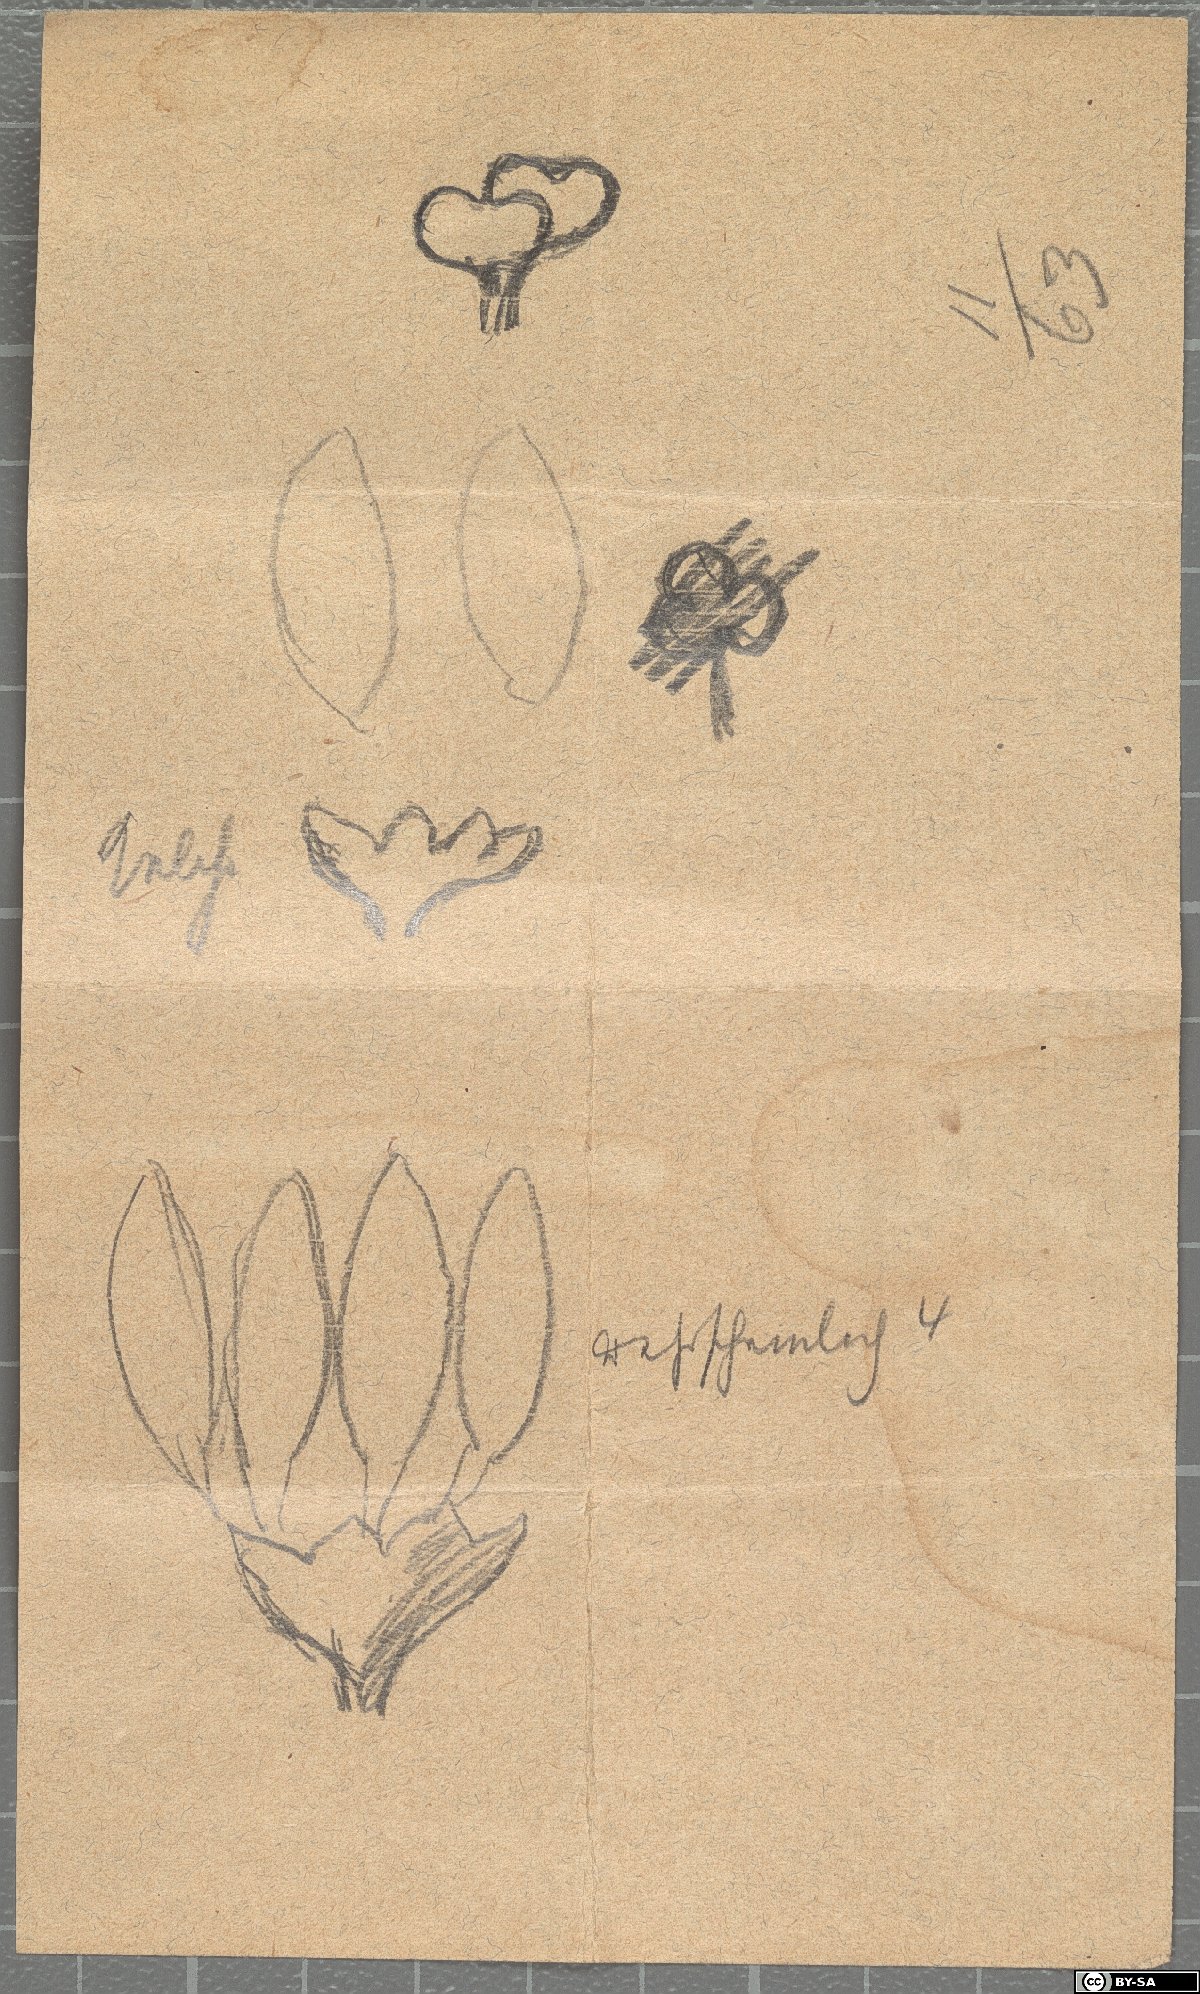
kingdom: Plantae
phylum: Tracheophyta
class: Magnoliopsida
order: Celastrales
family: Celastraceae
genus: Cuervea
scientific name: Cuervea kappleriana
